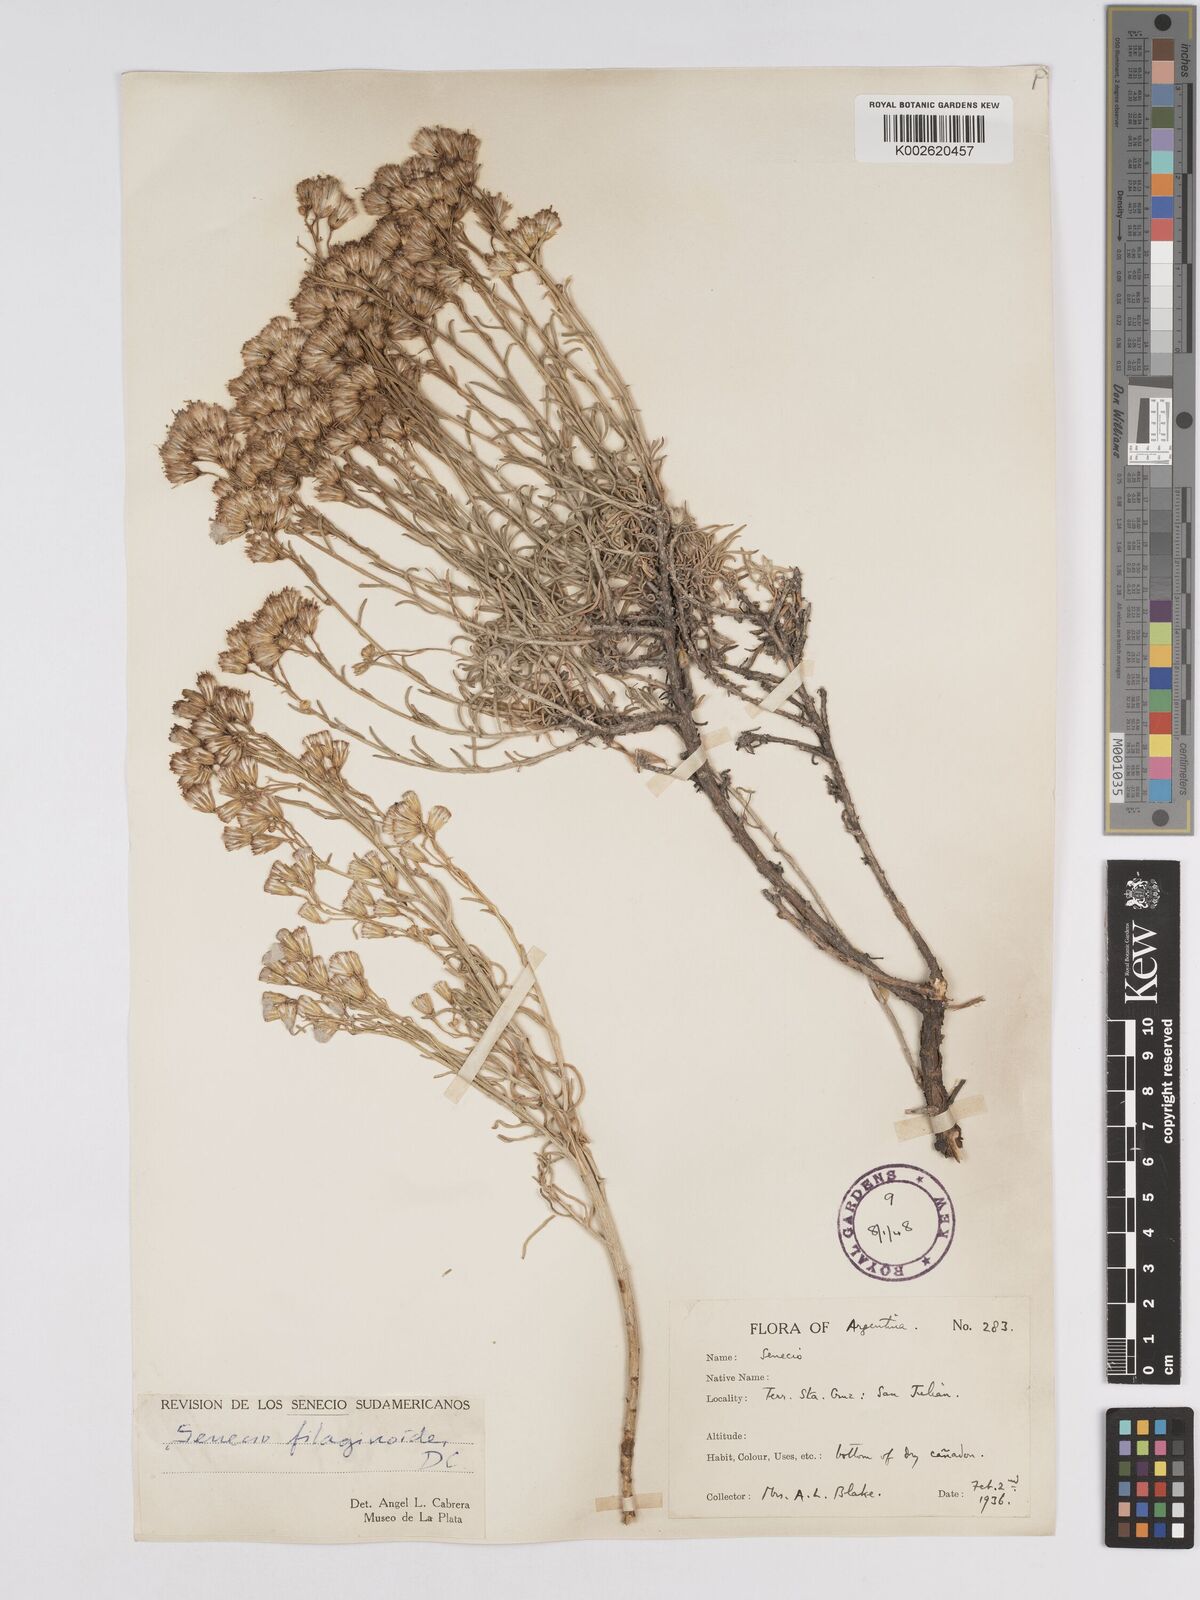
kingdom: Plantae
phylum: Tracheophyta
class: Magnoliopsida
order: Asterales
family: Asteraceae
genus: Senecio
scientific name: Senecio filaginoides
